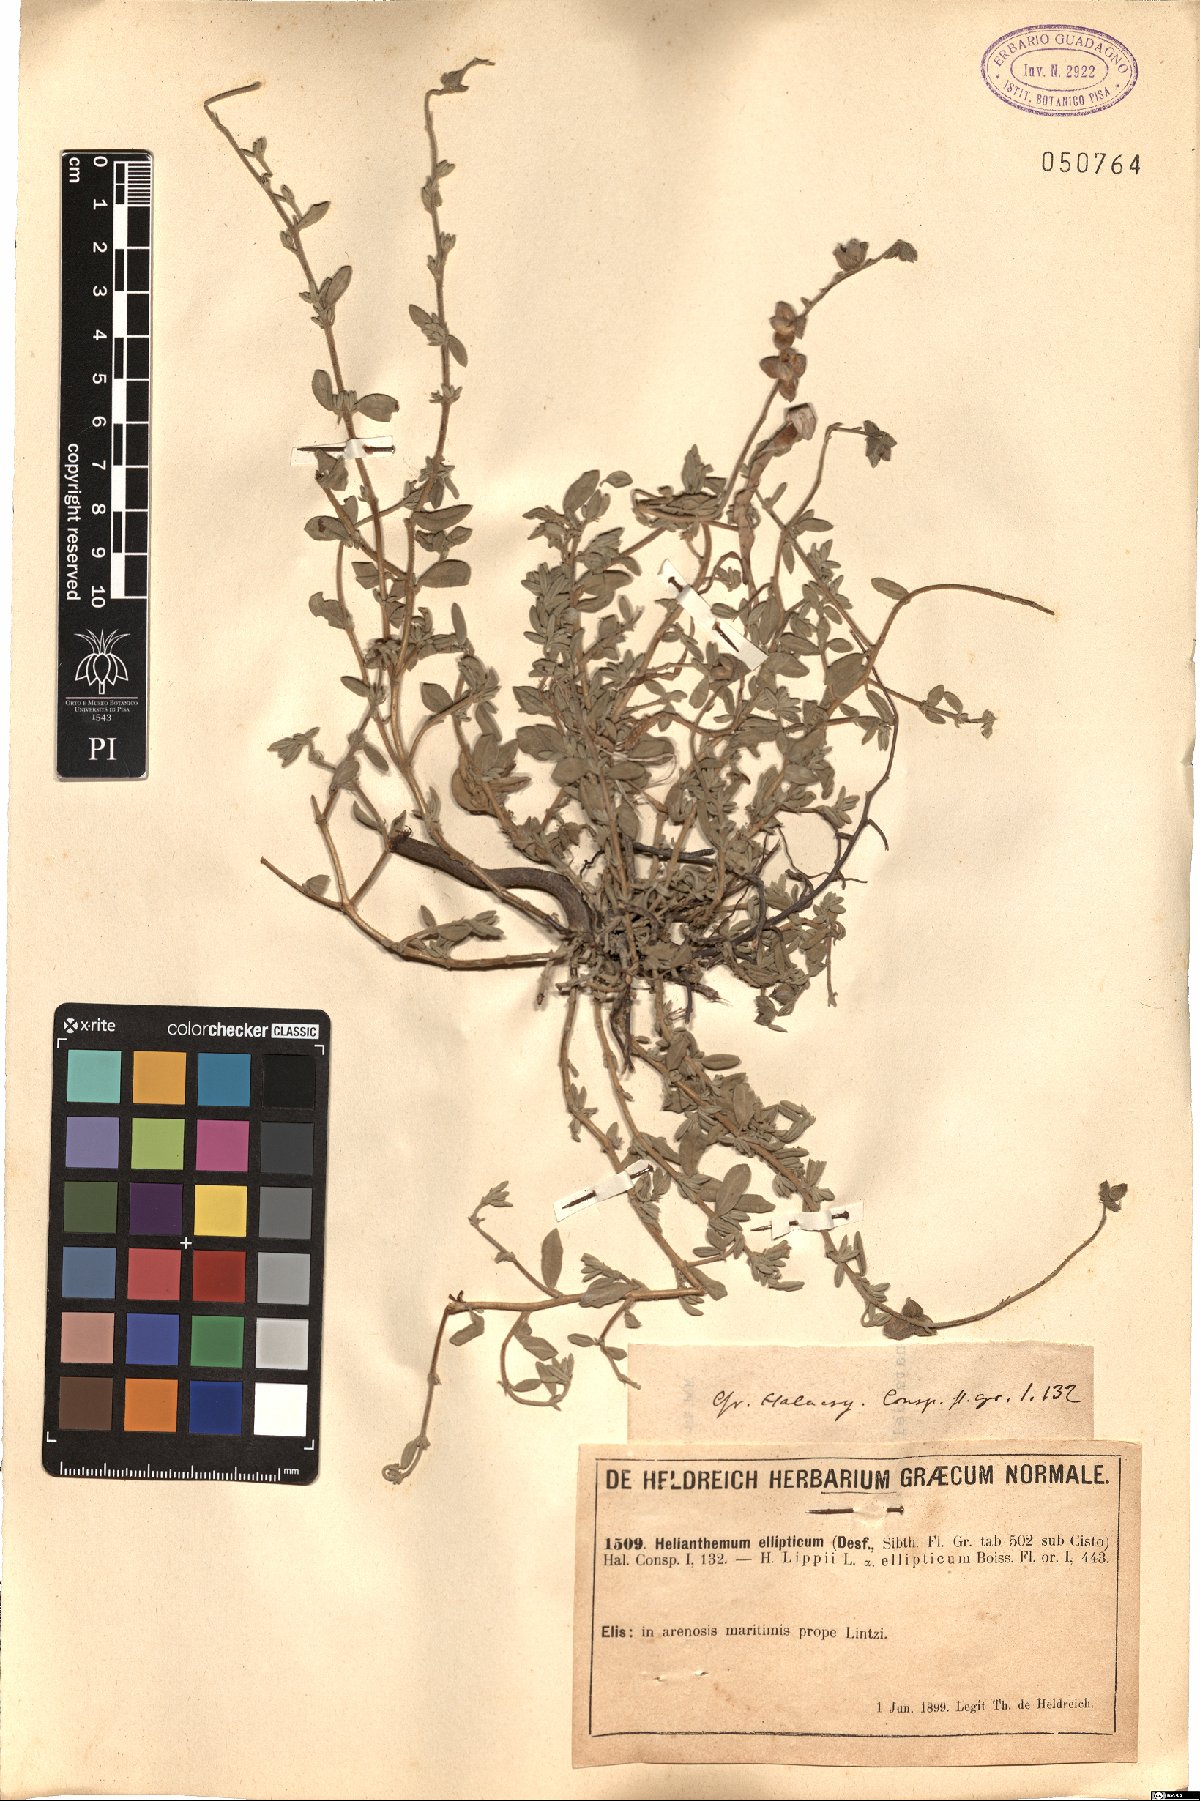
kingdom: Plantae
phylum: Tracheophyta
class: Magnoliopsida
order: Malvales
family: Cistaceae
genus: Helianthemum
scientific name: Helianthemum ellipticum
